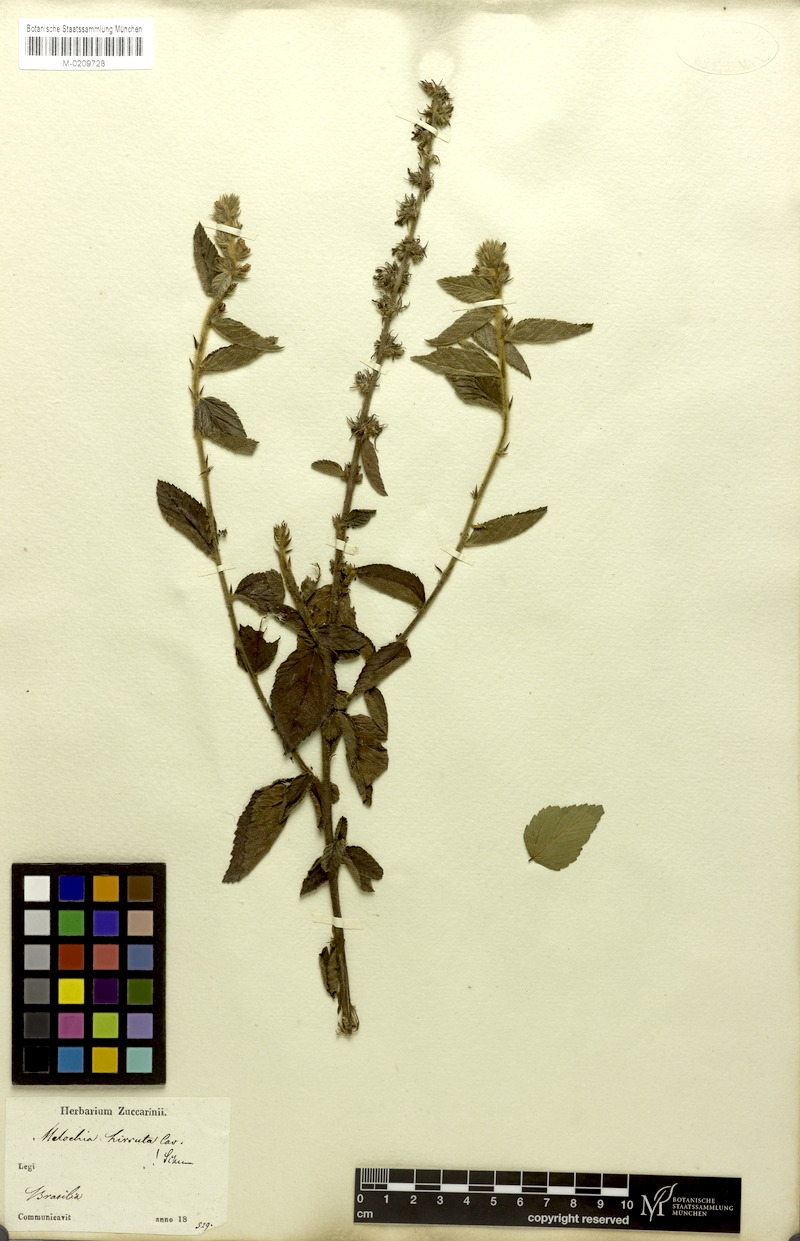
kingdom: Plantae
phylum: Tracheophyta
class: Magnoliopsida
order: Malvales
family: Malvaceae
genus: Melochia
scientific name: Melochia spicata
